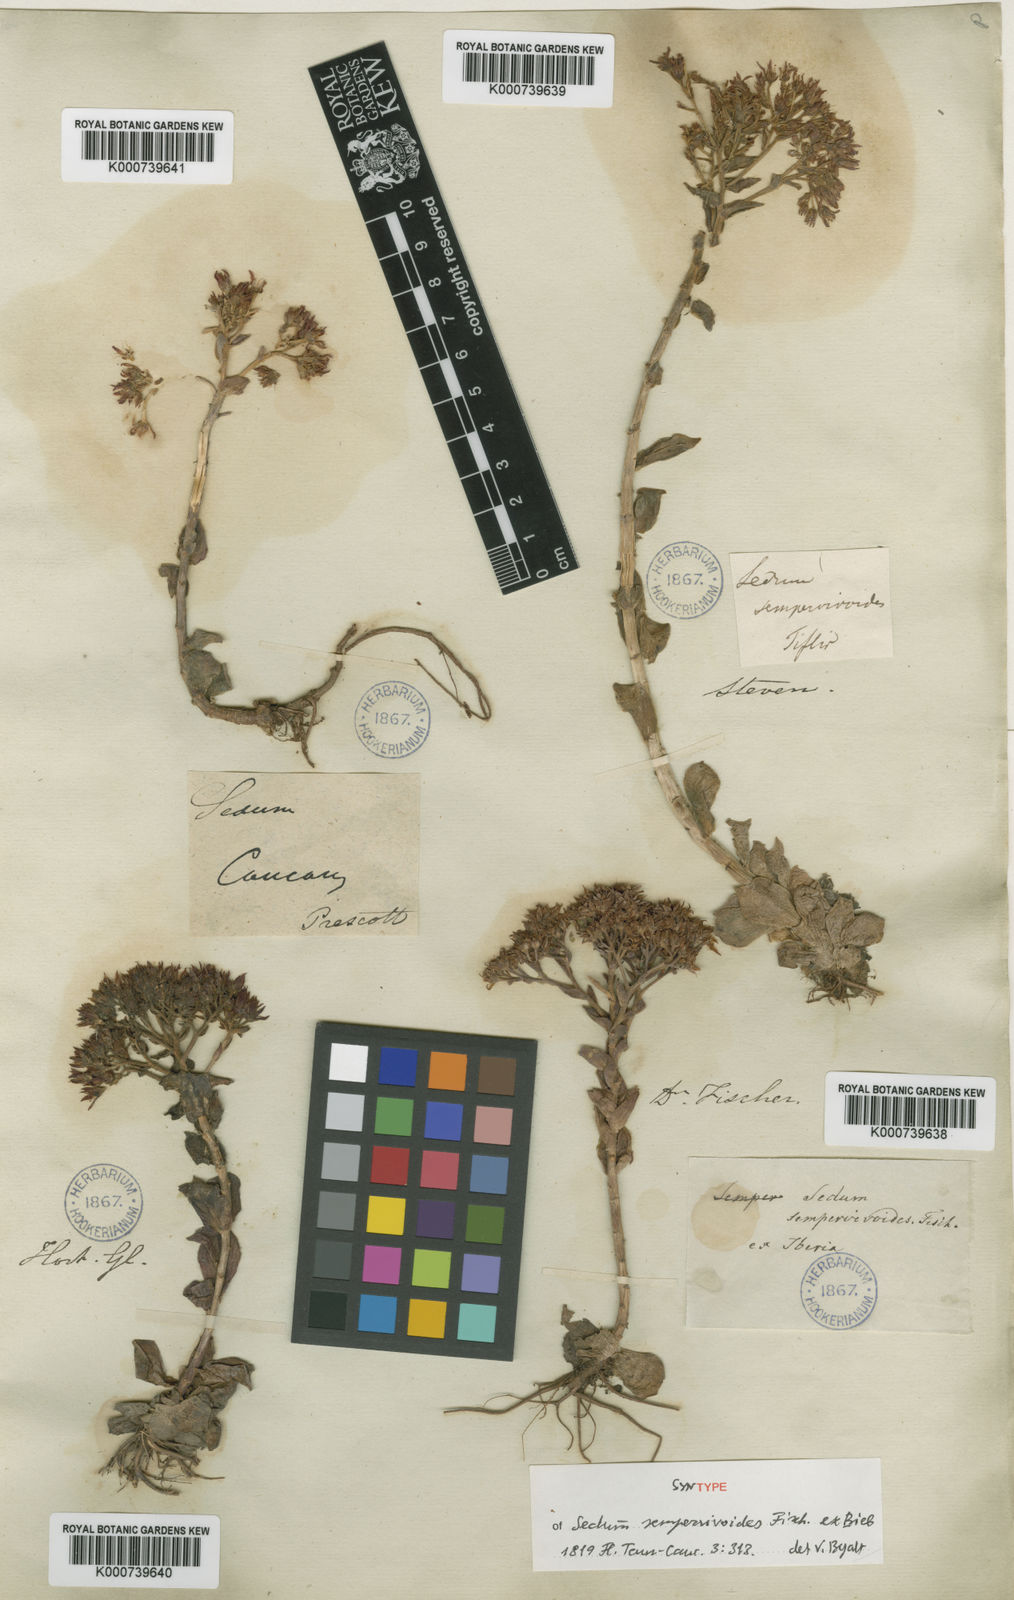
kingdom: Plantae
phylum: Tracheophyta
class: Magnoliopsida
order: Saxifragales
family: Crassulaceae
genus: Prometheum
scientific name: Prometheum sempervivoides
